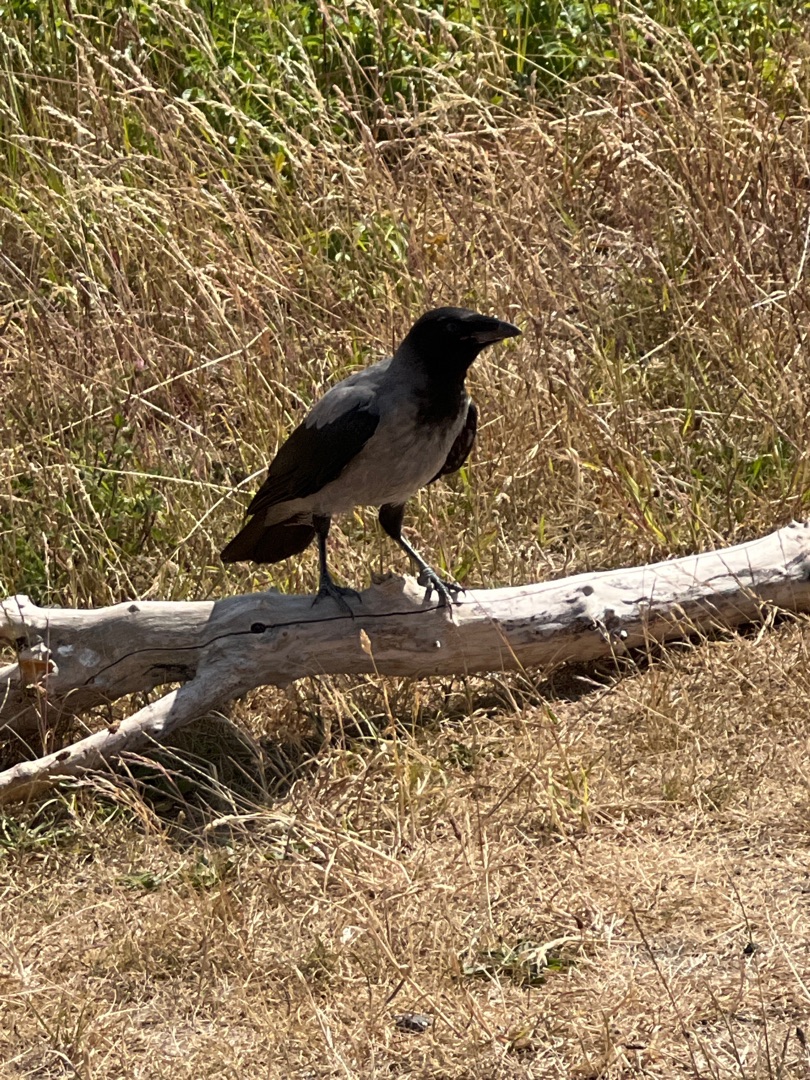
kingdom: Animalia
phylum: Chordata
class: Aves
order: Passeriformes
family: Corvidae
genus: Corvus
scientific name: Corvus cornix
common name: Gråkrage
